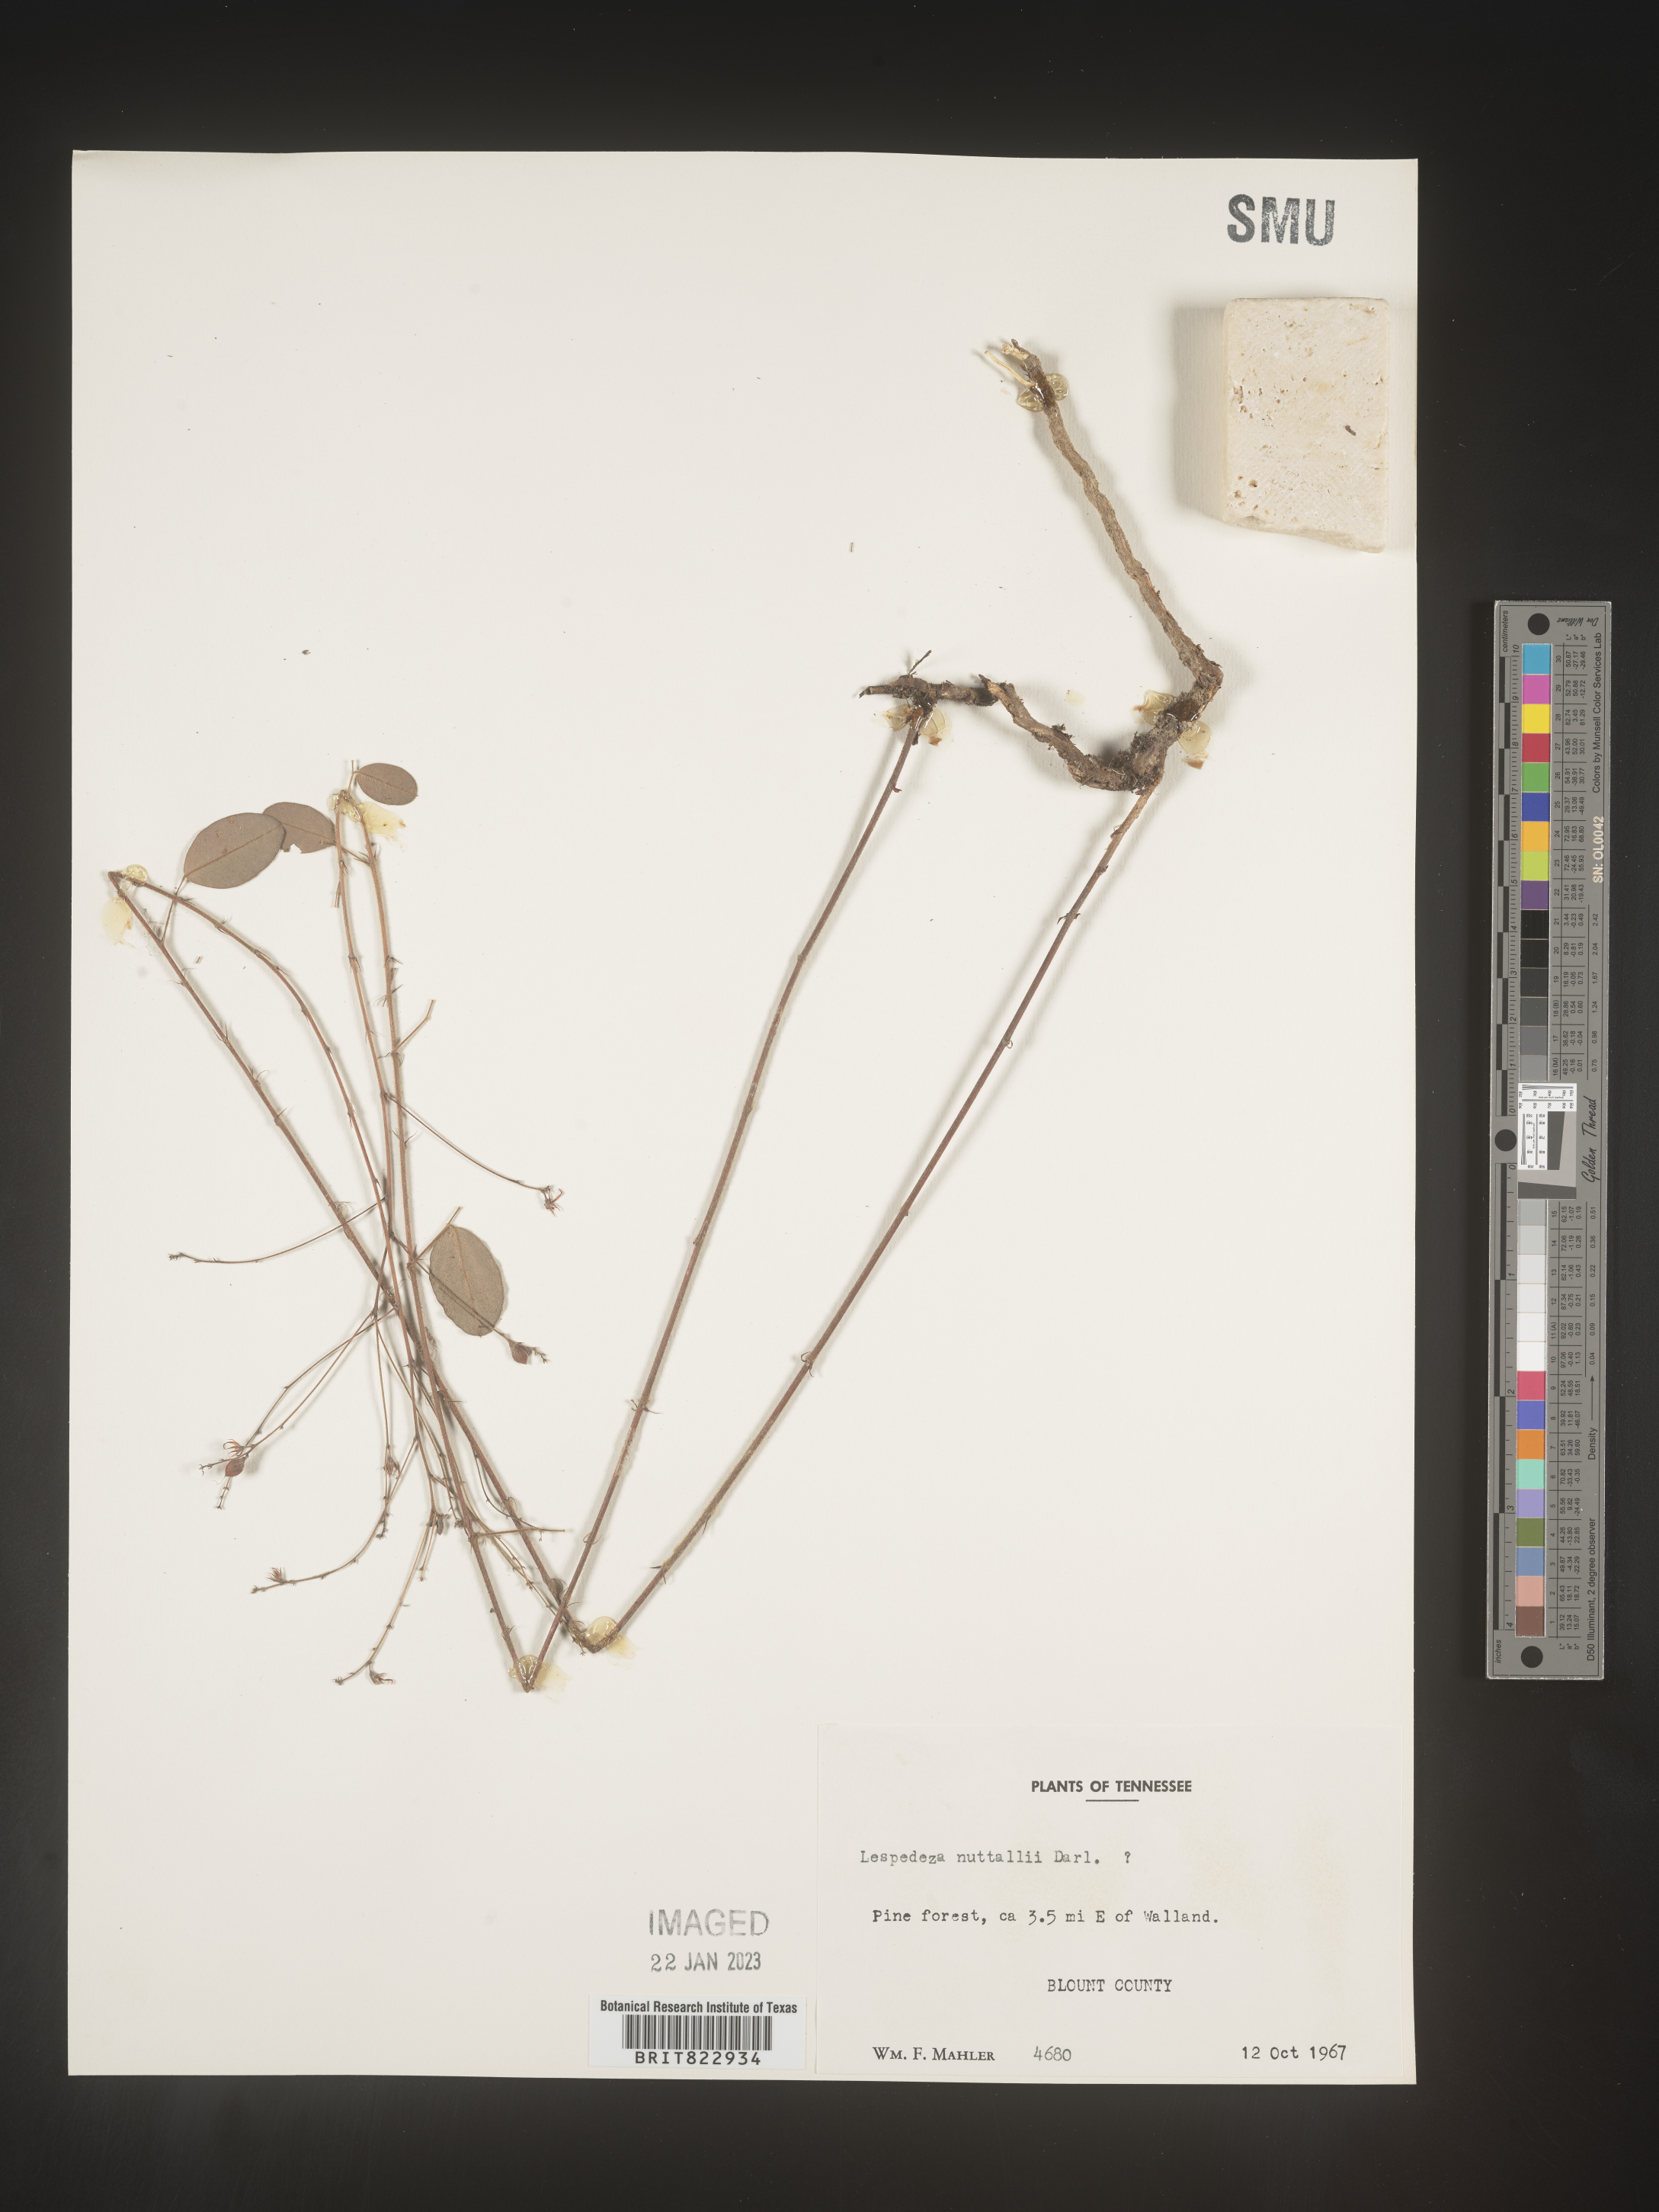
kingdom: Plantae
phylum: Tracheophyta
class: Magnoliopsida
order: Fabales
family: Fabaceae
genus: Lespedeza
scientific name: Lespedeza
